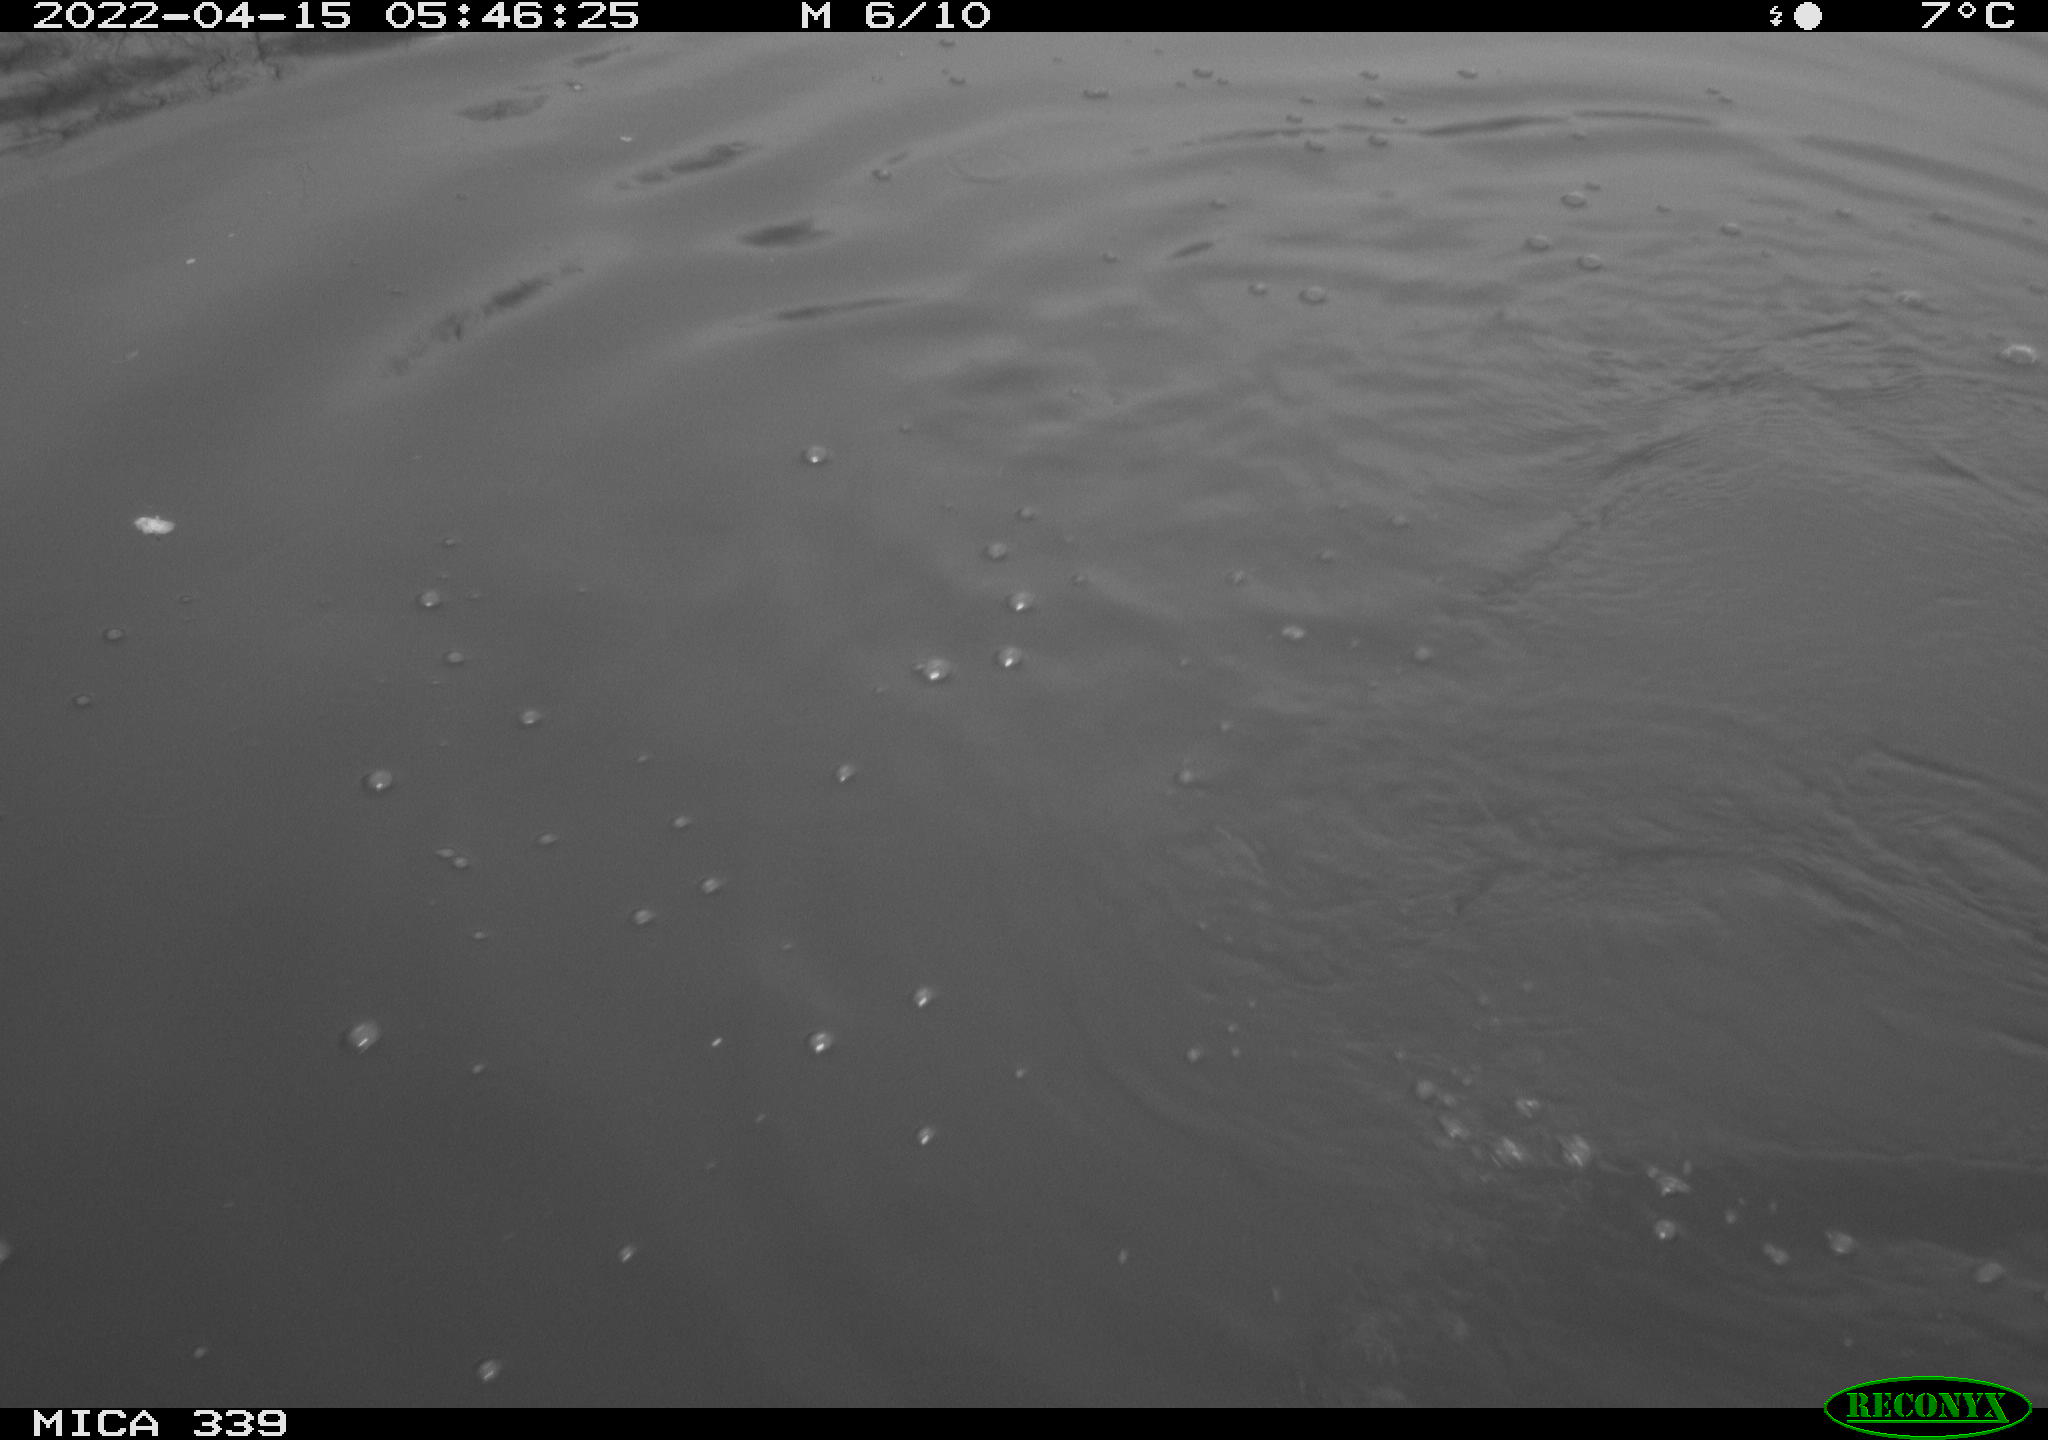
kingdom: Animalia
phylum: Chordata
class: Aves
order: Suliformes
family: Phalacrocoracidae
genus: Phalacrocorax
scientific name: Phalacrocorax carbo
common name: Great cormorant
